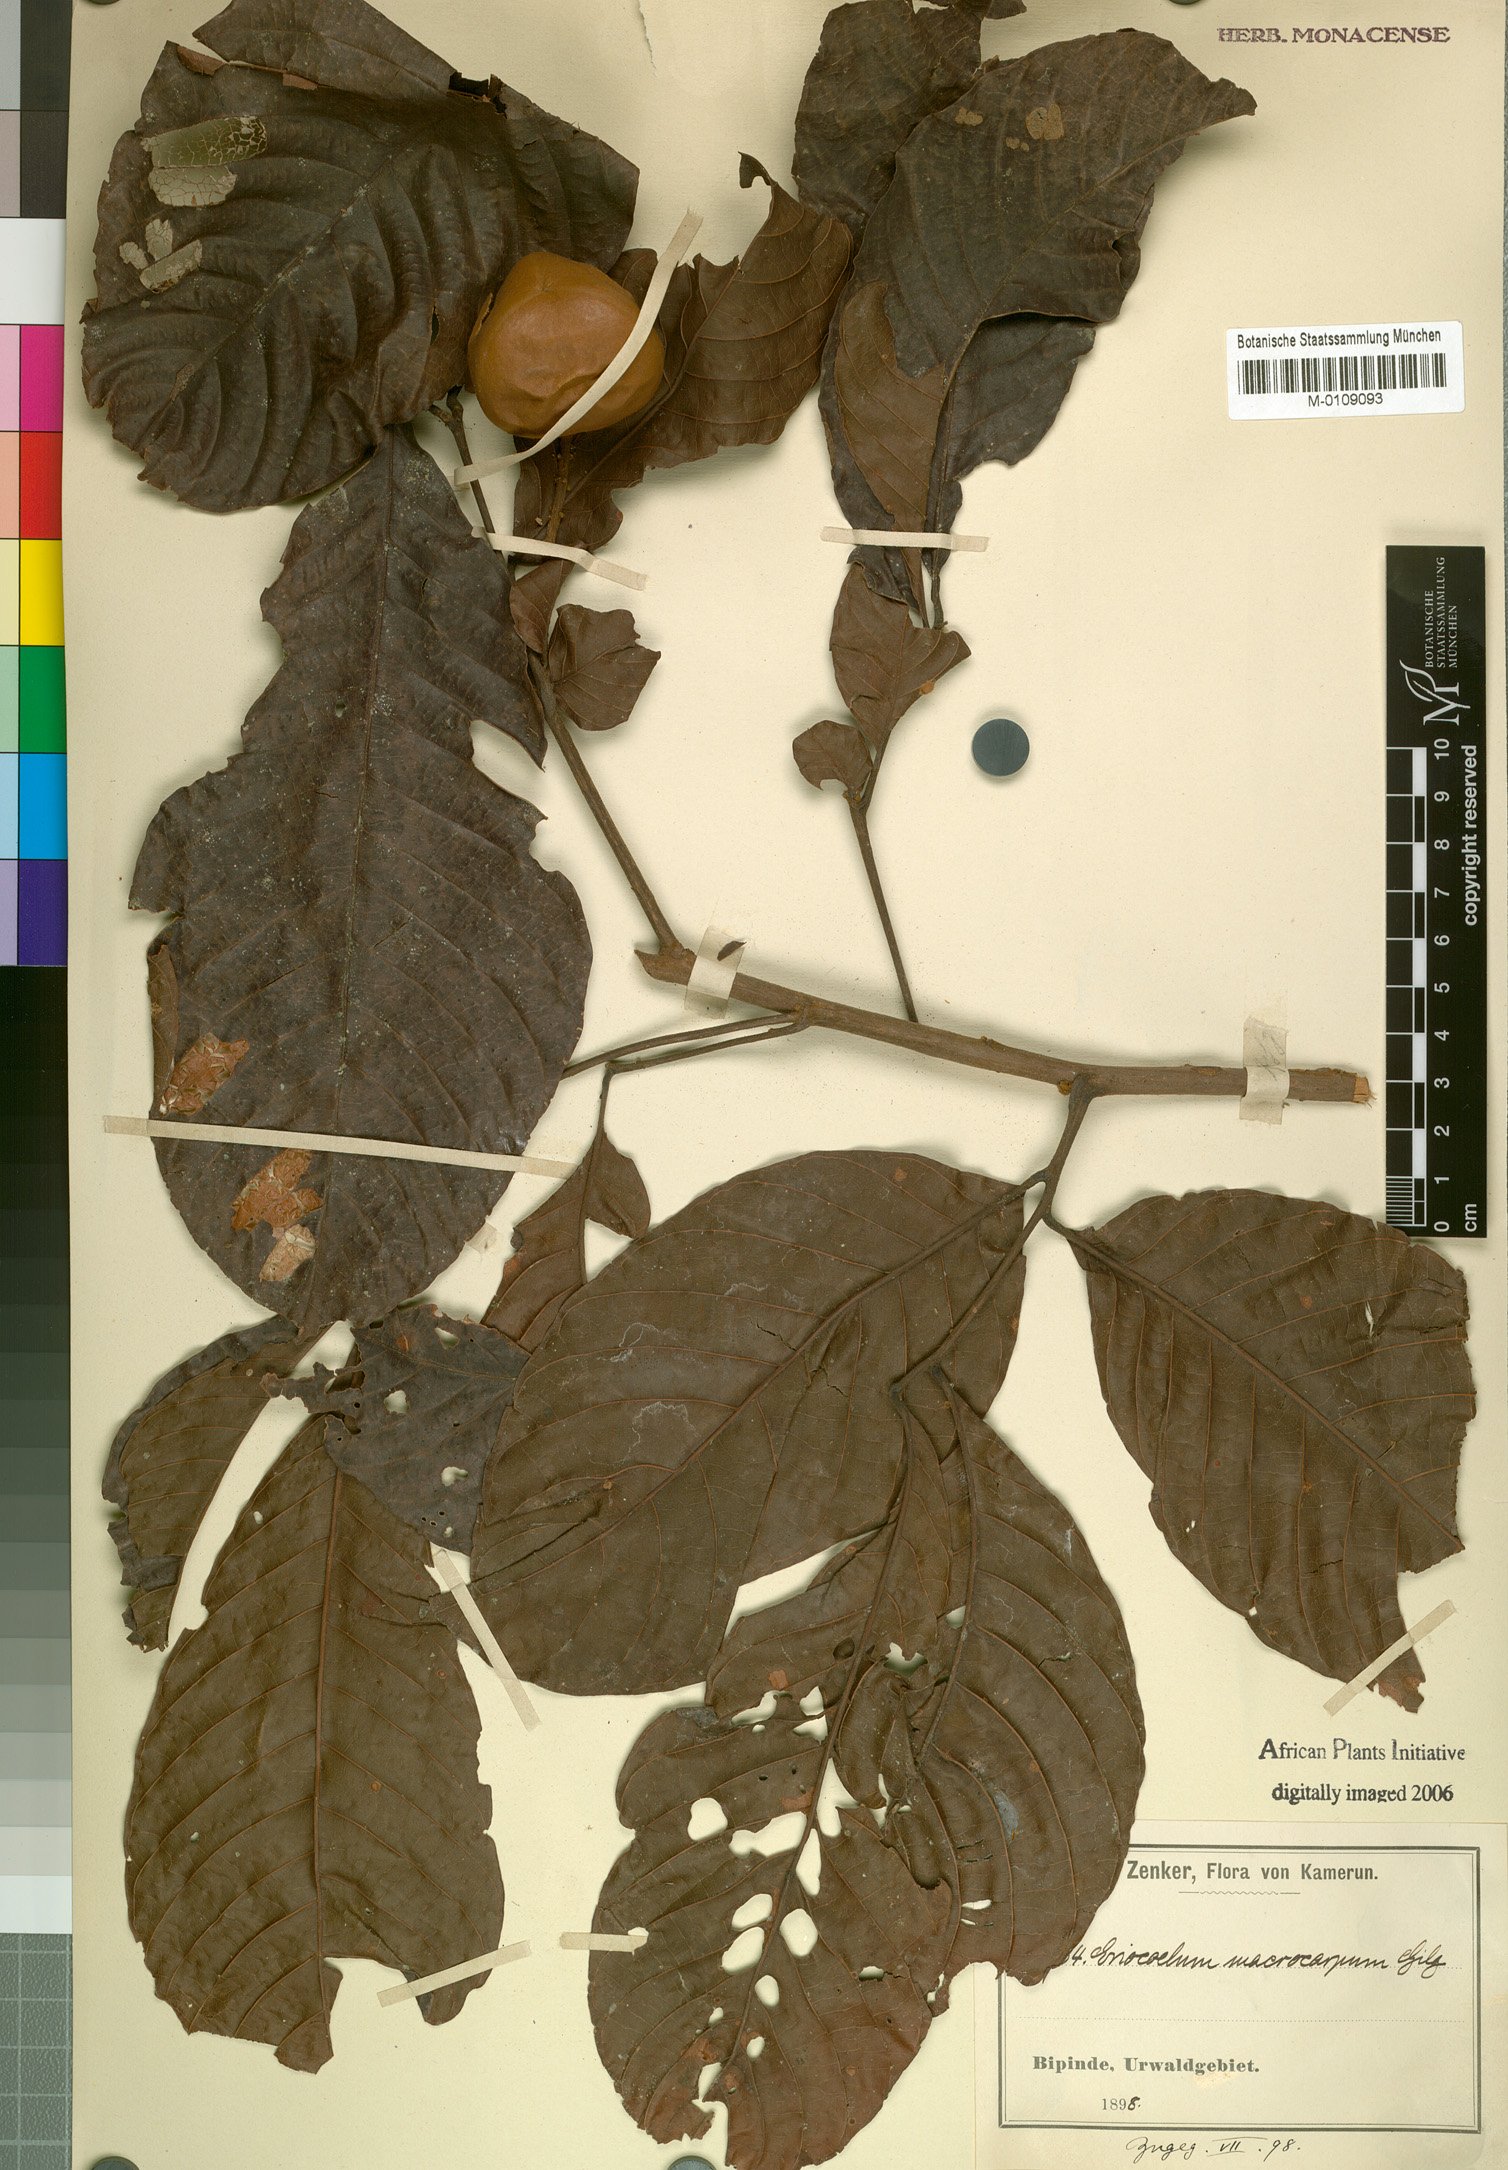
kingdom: Plantae
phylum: Tracheophyta
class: Magnoliopsida
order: Sapindales
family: Sapindaceae
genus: Eriocoelum
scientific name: Eriocoelum macrocarpum
